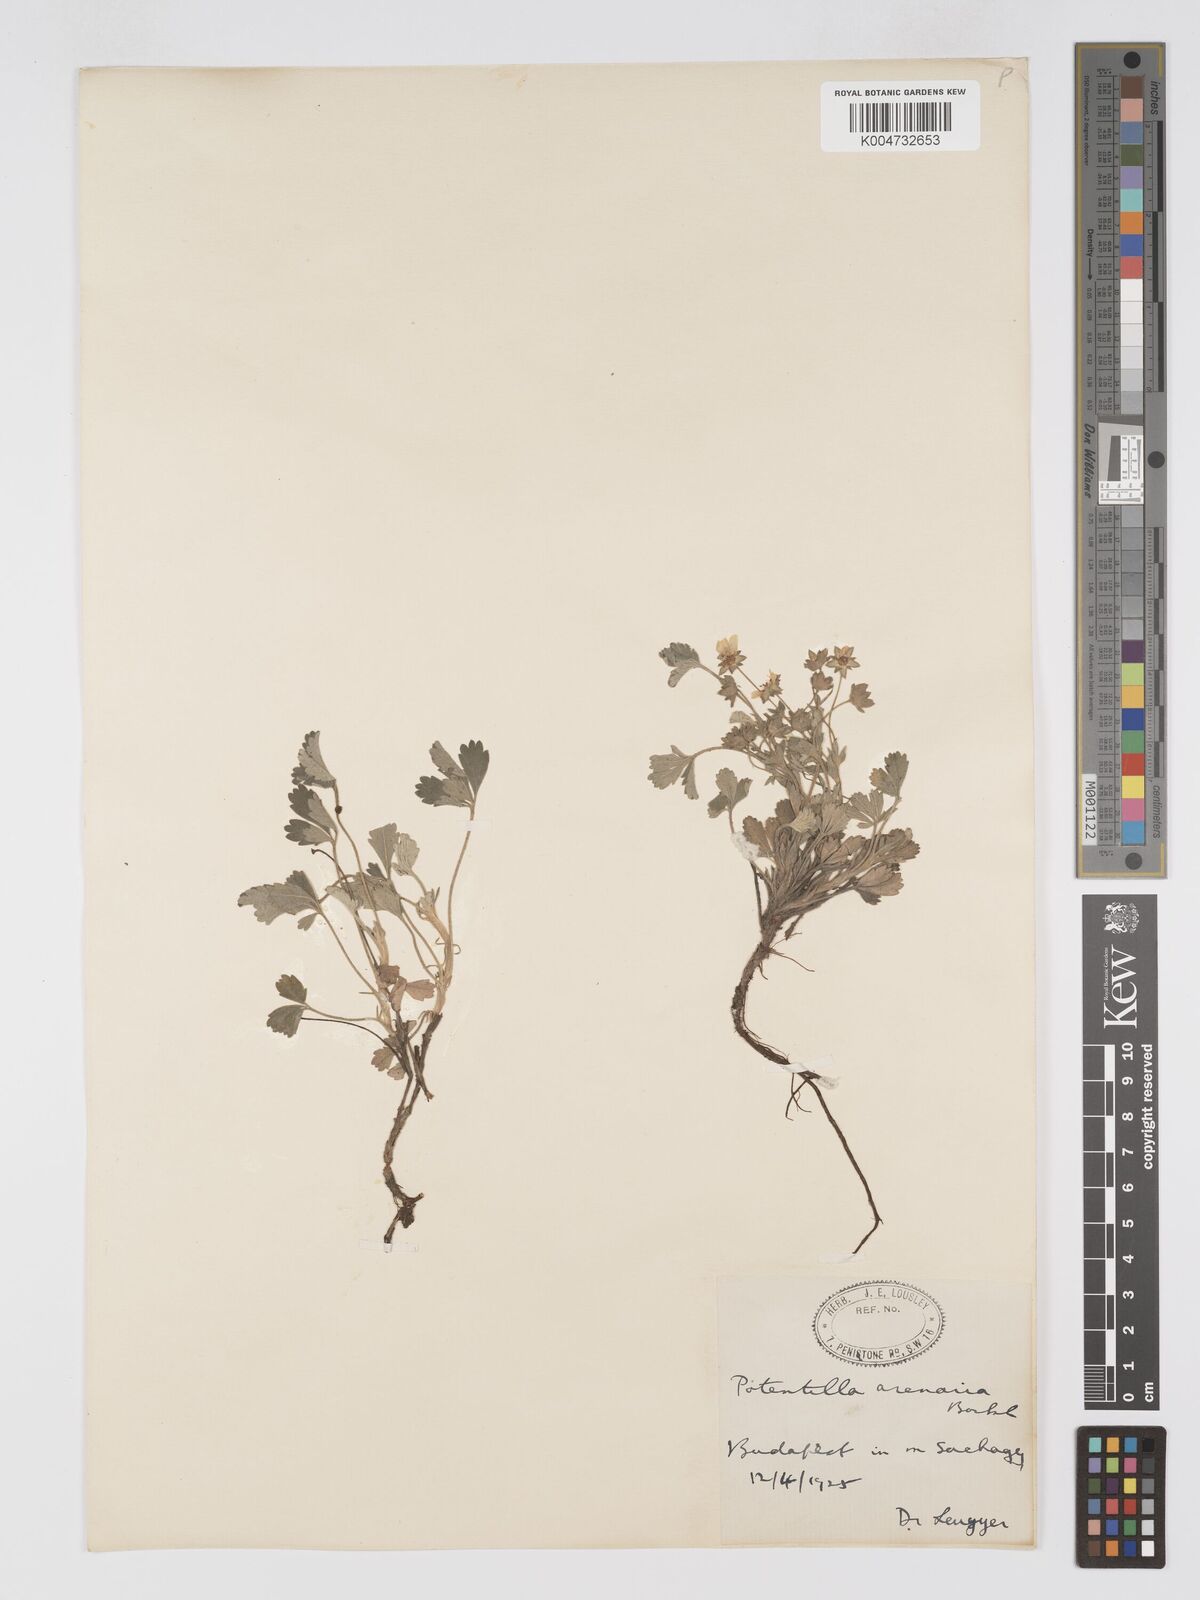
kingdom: Plantae
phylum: Tracheophyta
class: Magnoliopsida
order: Rosales
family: Rosaceae
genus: Potentilla
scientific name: Potentilla cinerea
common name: Ashy cinquefoil
